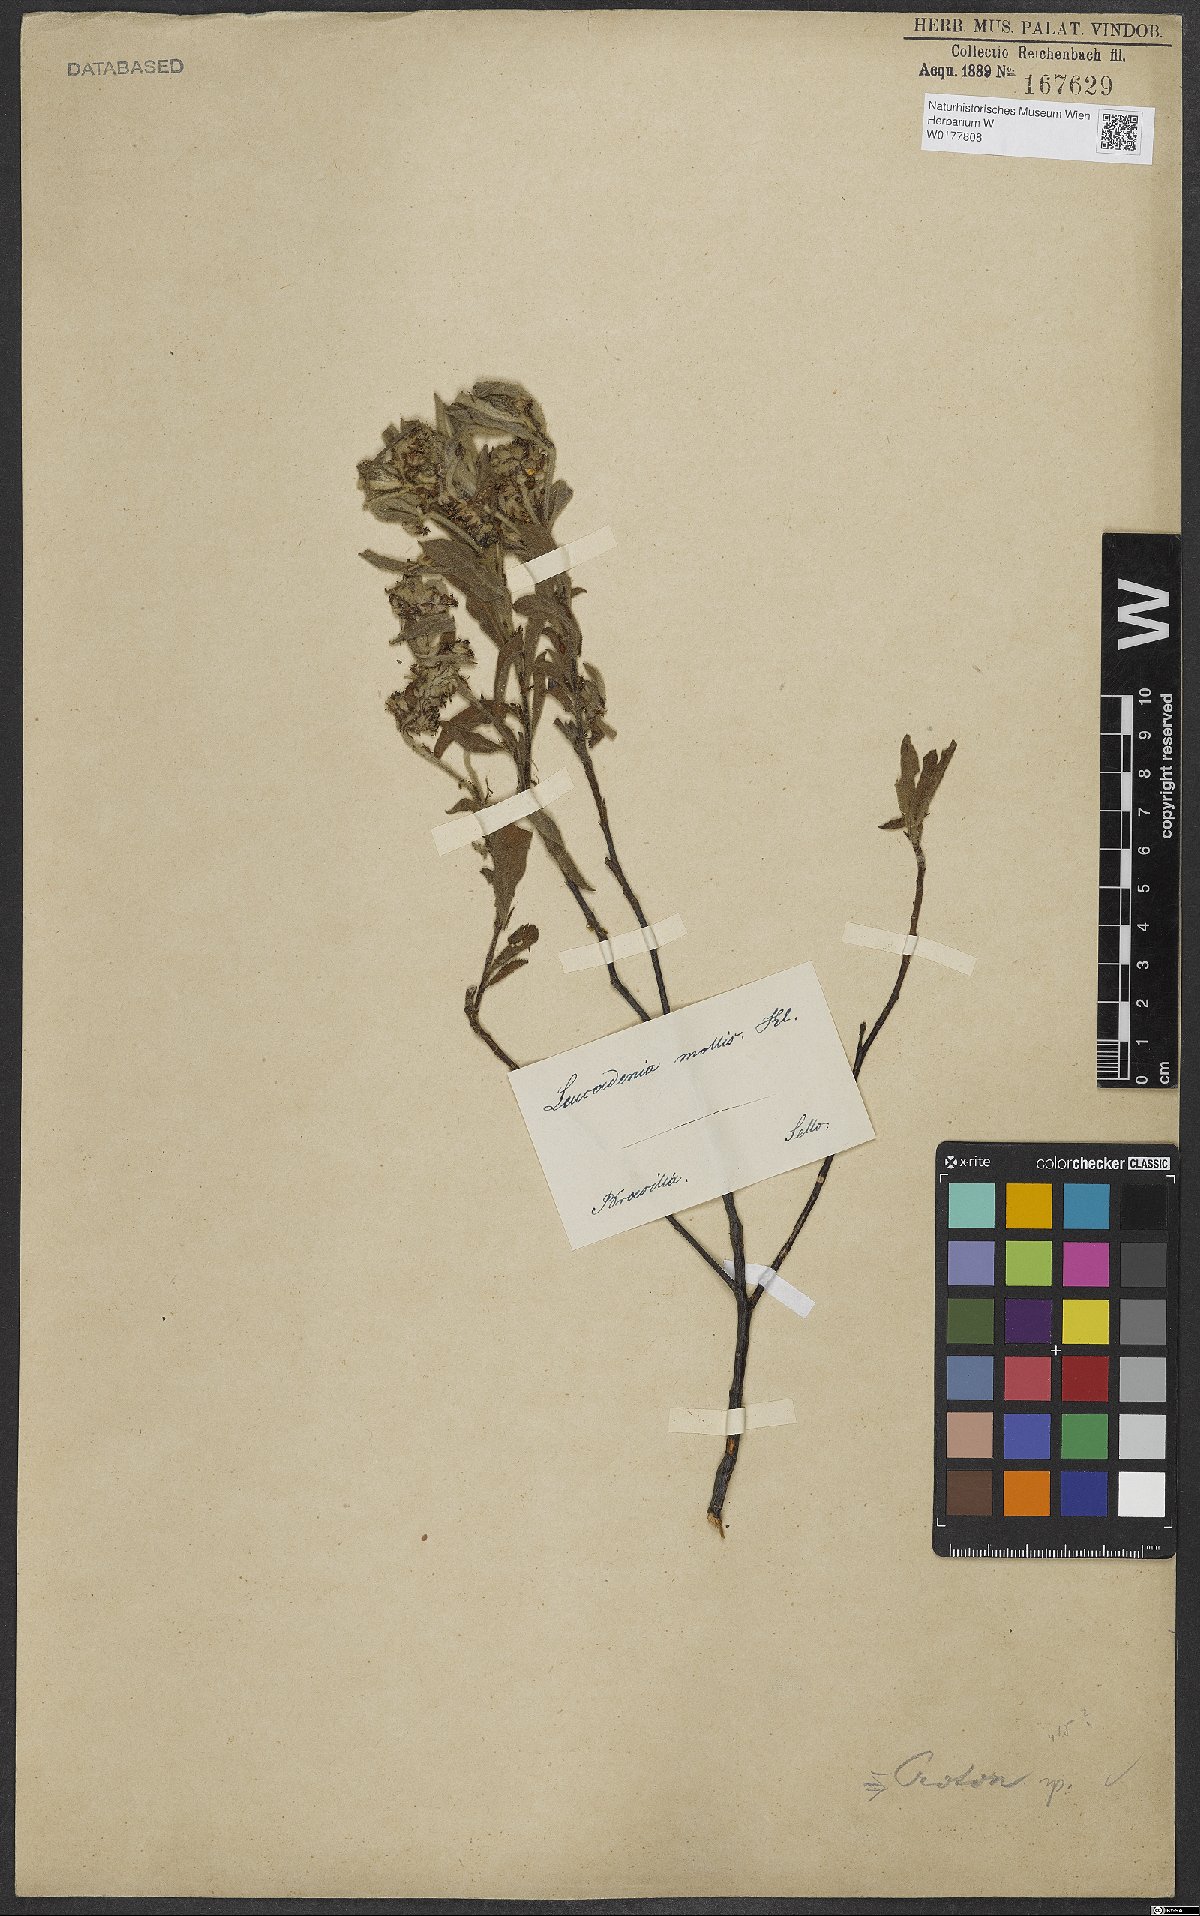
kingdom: Plantae
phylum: Tracheophyta
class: Magnoliopsida
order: Malpighiales
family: Euphorbiaceae
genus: Croton
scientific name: Croton
